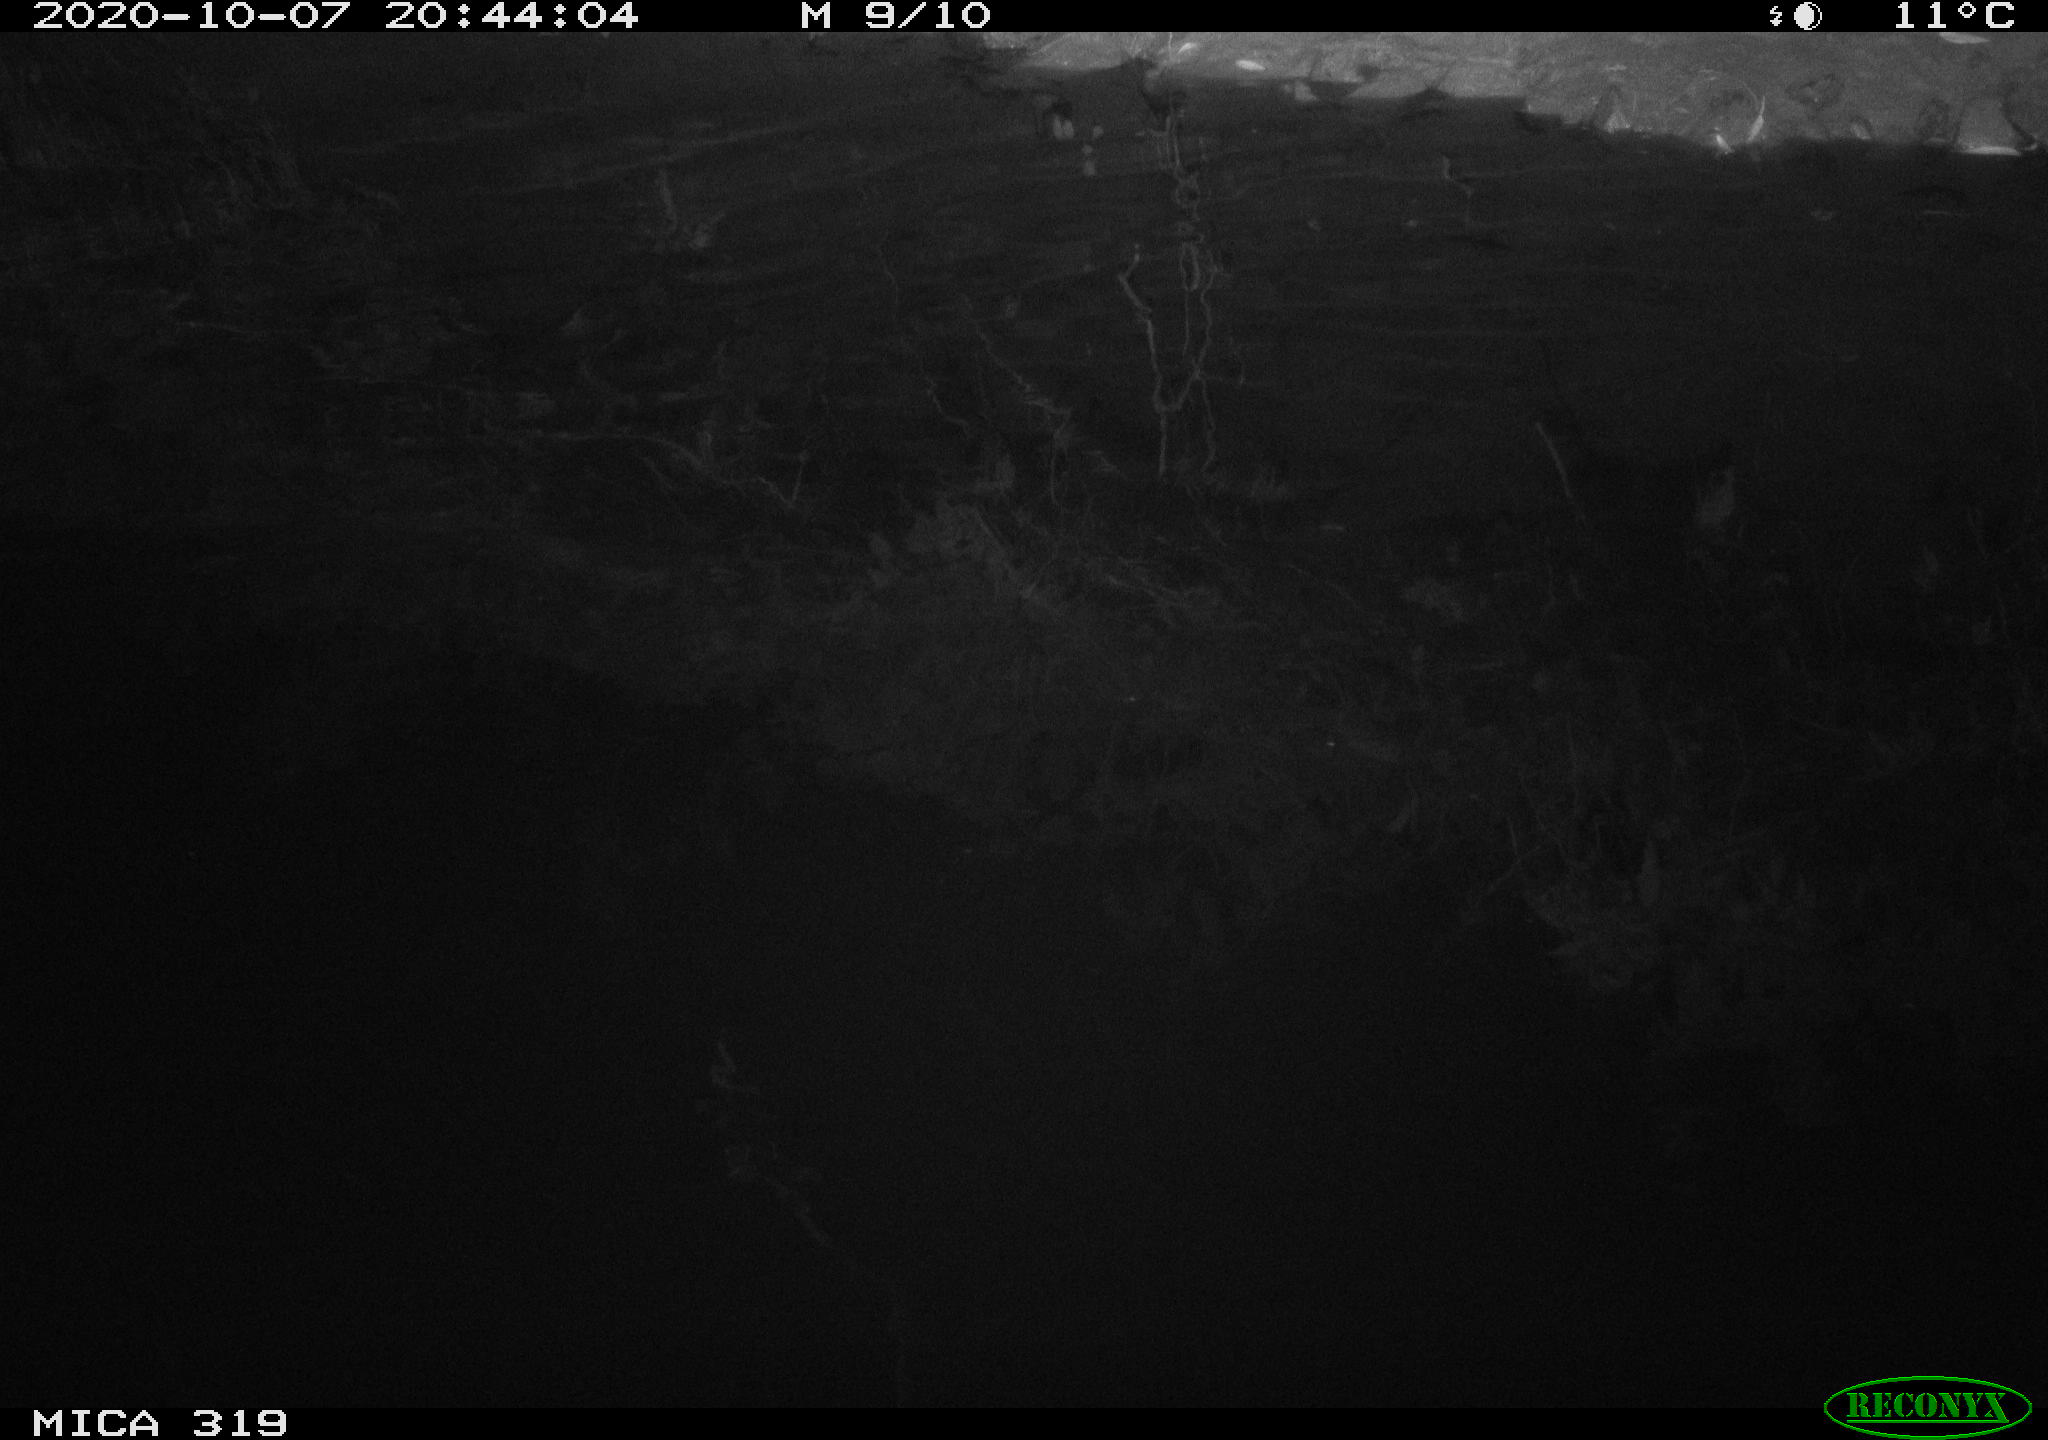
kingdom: Animalia
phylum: Chordata
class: Mammalia
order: Rodentia
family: Muridae
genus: Rattus
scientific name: Rattus norvegicus
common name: Brown rat
